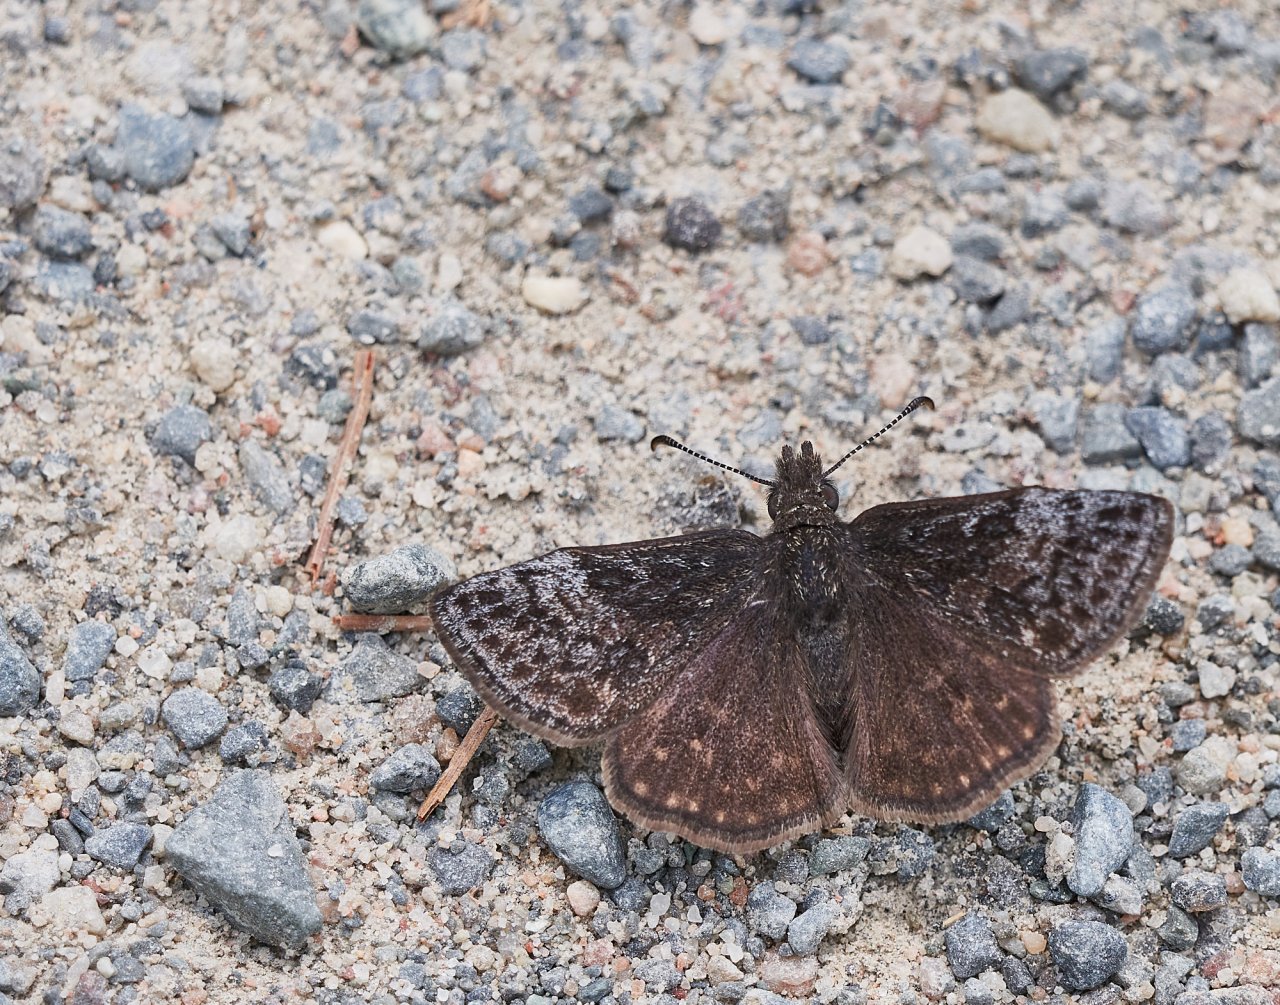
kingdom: Animalia
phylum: Arthropoda
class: Insecta
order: Lepidoptera
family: Hesperiidae
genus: Erynnis
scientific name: Erynnis icelus
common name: Dreamy Duskywing
